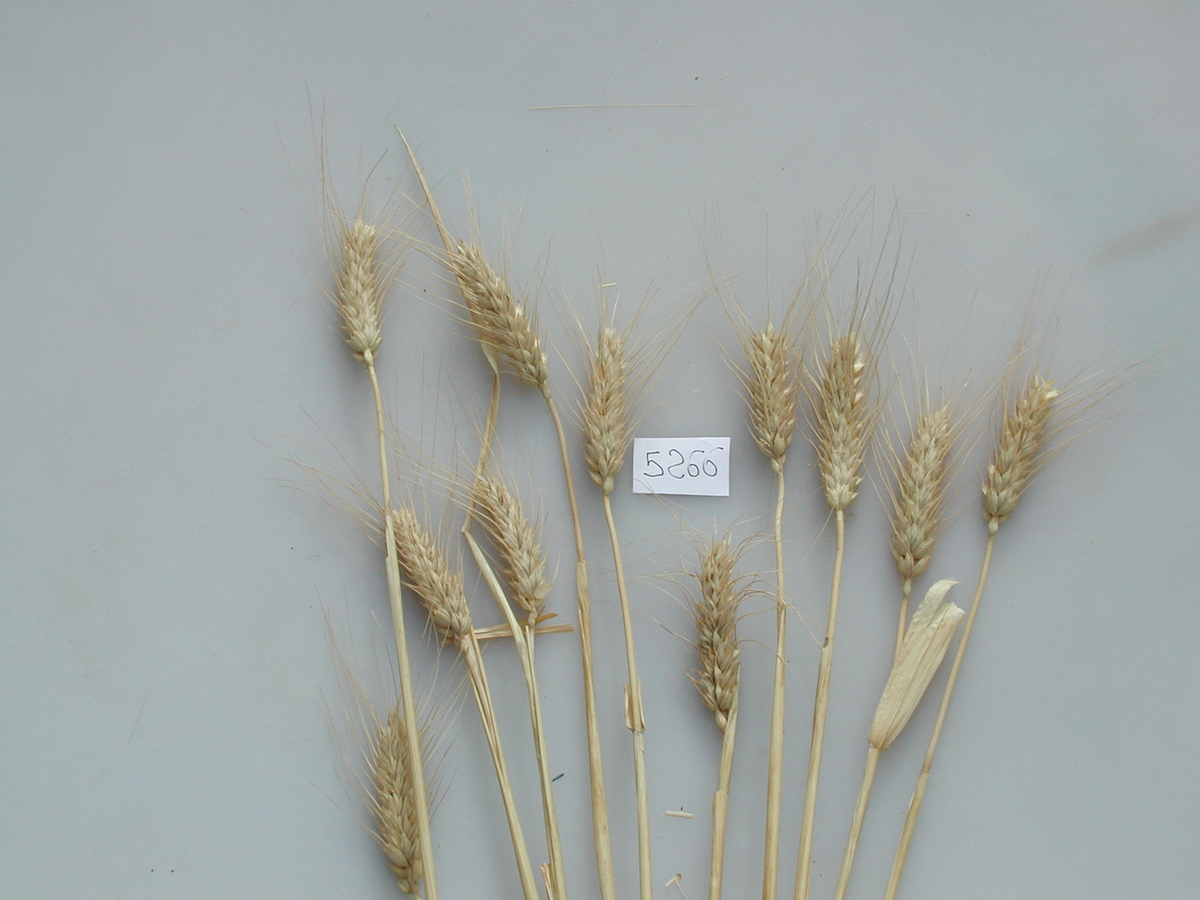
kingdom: Plantae
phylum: Tracheophyta
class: Liliopsida
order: Poales
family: Poaceae
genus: Triticum
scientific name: Triticum aestivum
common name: Wheat
